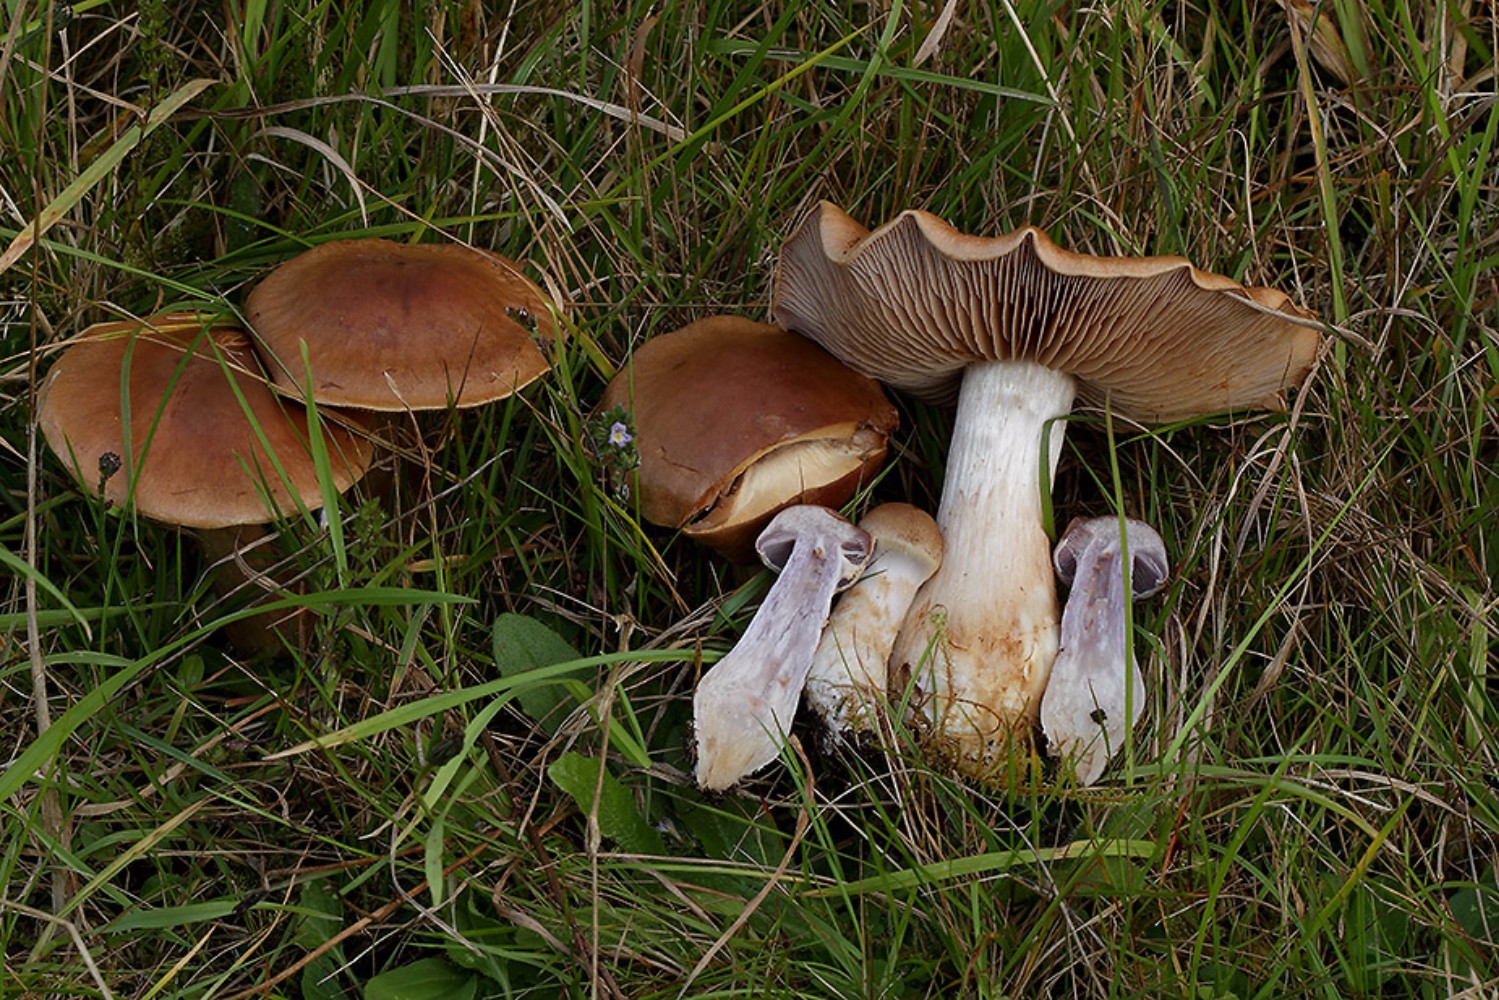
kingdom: Fungi
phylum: Basidiomycota
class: Agaricomycetes
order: Agaricales
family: Cortinariaceae
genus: Cortinarius
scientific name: Cortinarius caninus
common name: gran-slørhat
